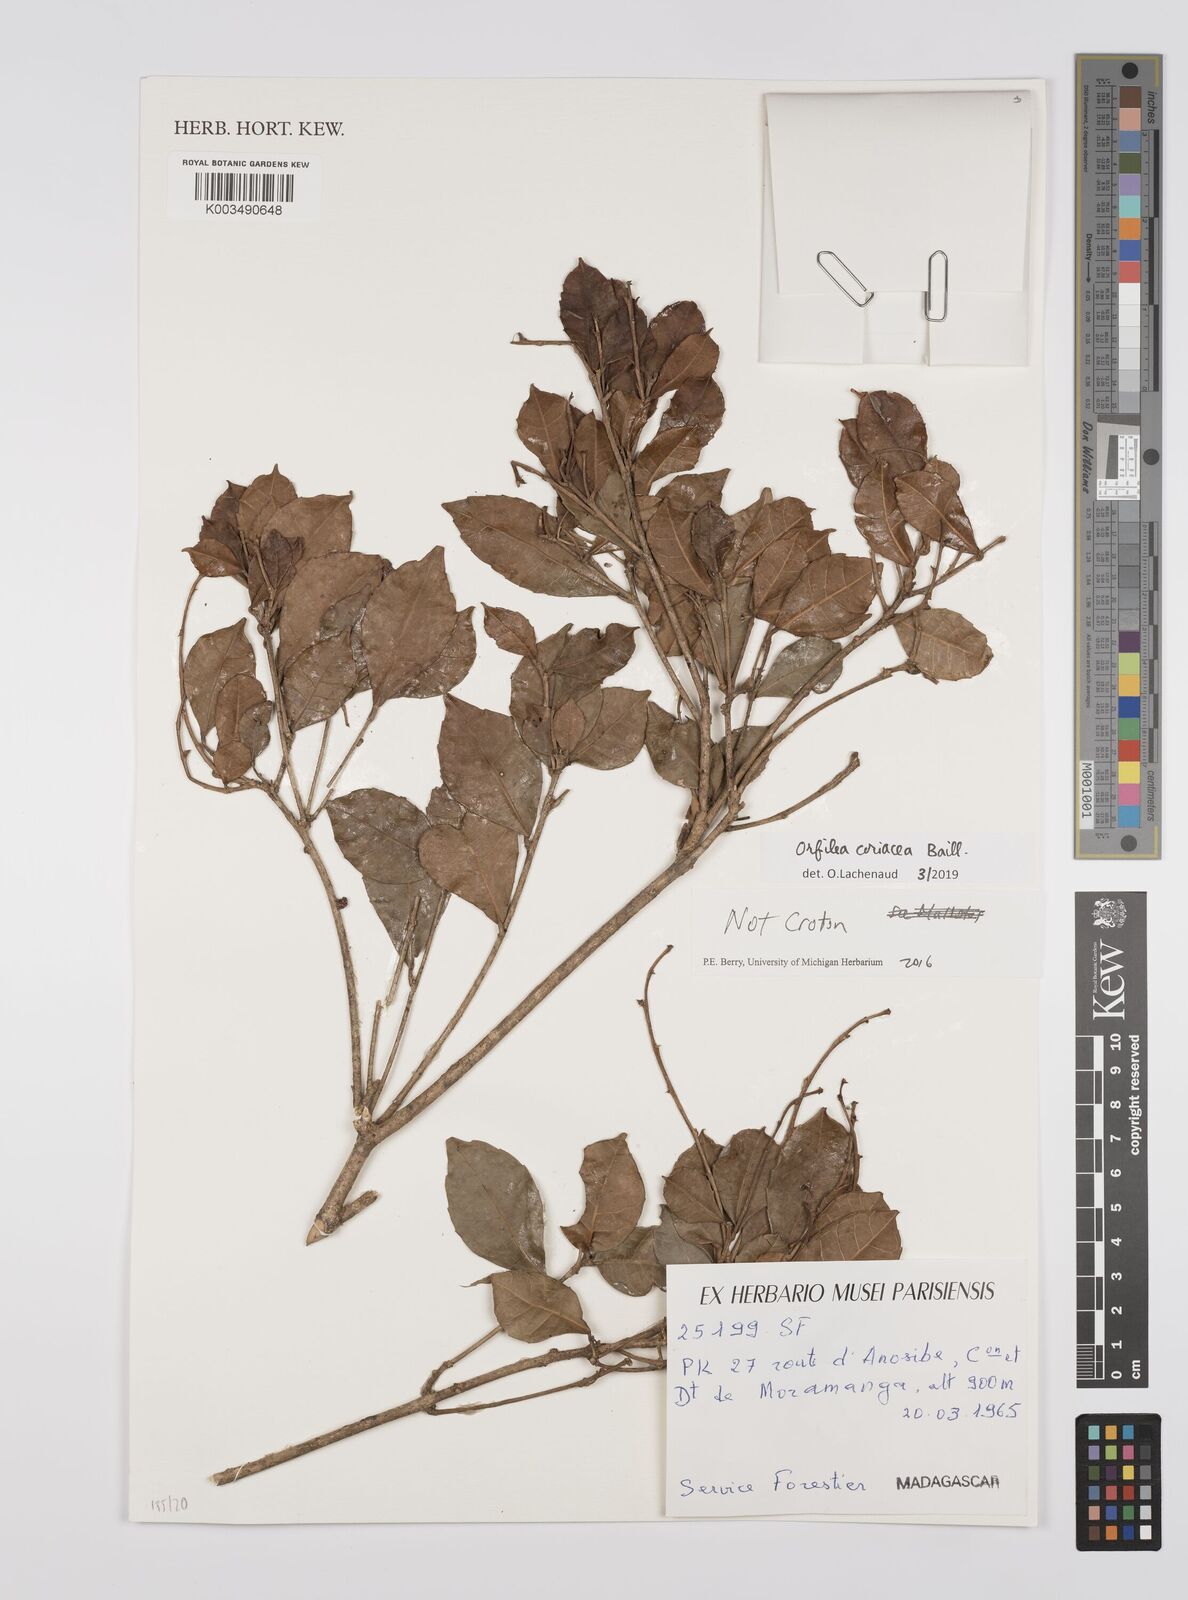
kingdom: Plantae
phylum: Tracheophyta
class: Magnoliopsida
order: Malpighiales
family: Euphorbiaceae
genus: Orfilea
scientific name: Orfilea coriacea
